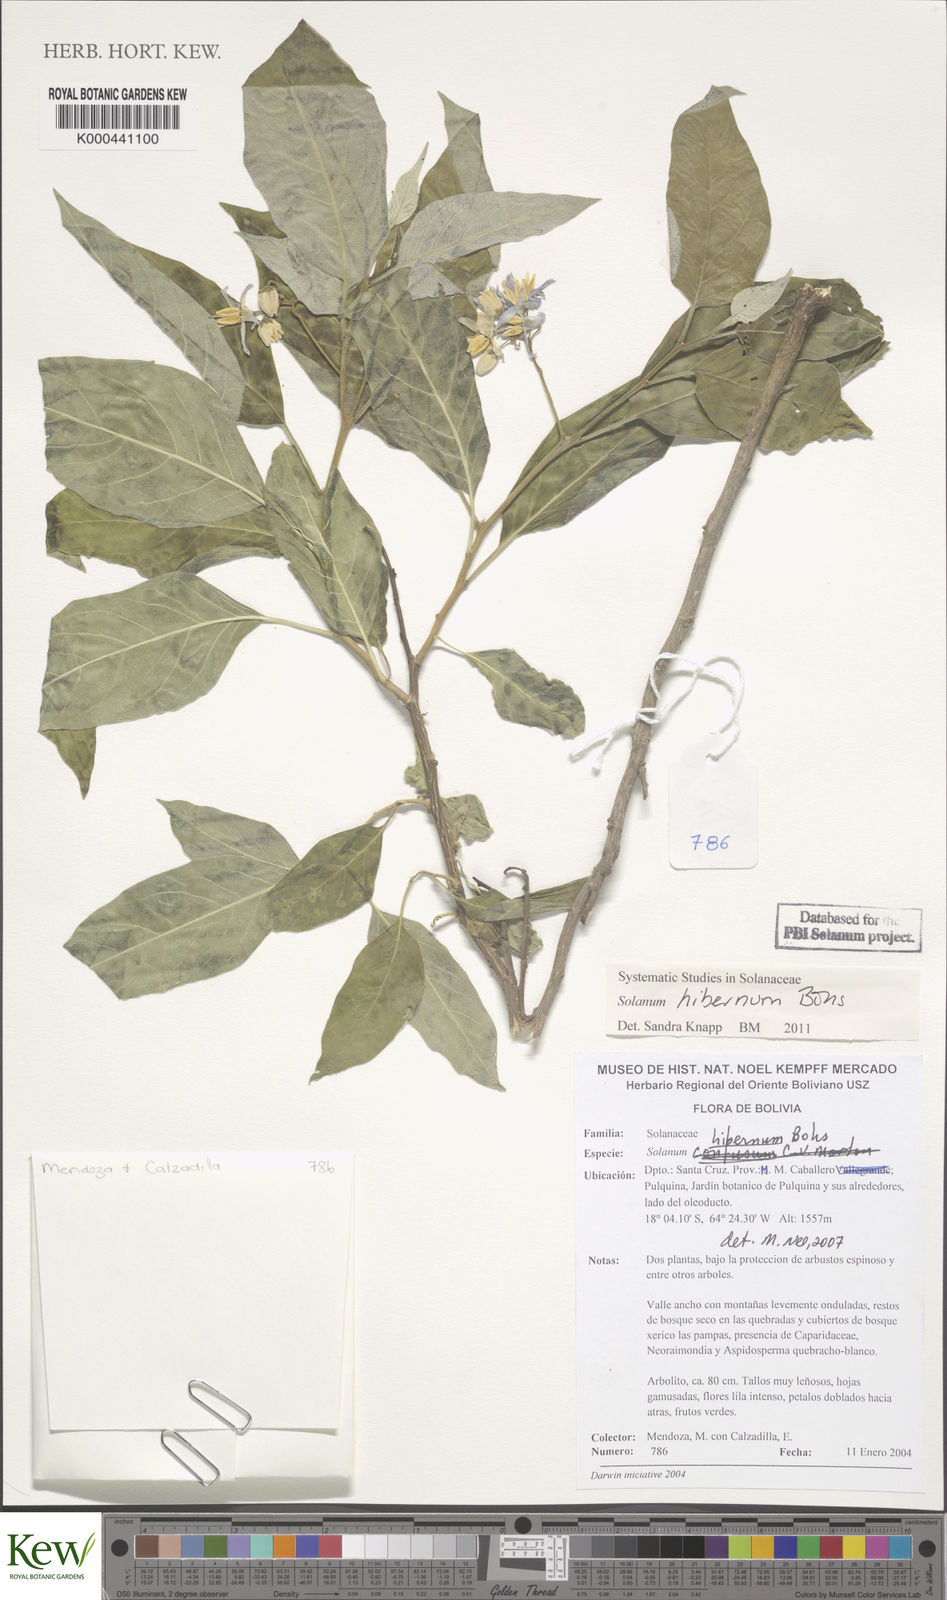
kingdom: Plantae
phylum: Tracheophyta
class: Magnoliopsida
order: Solanales
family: Solanaceae
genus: Solanum
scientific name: Solanum hibernum
